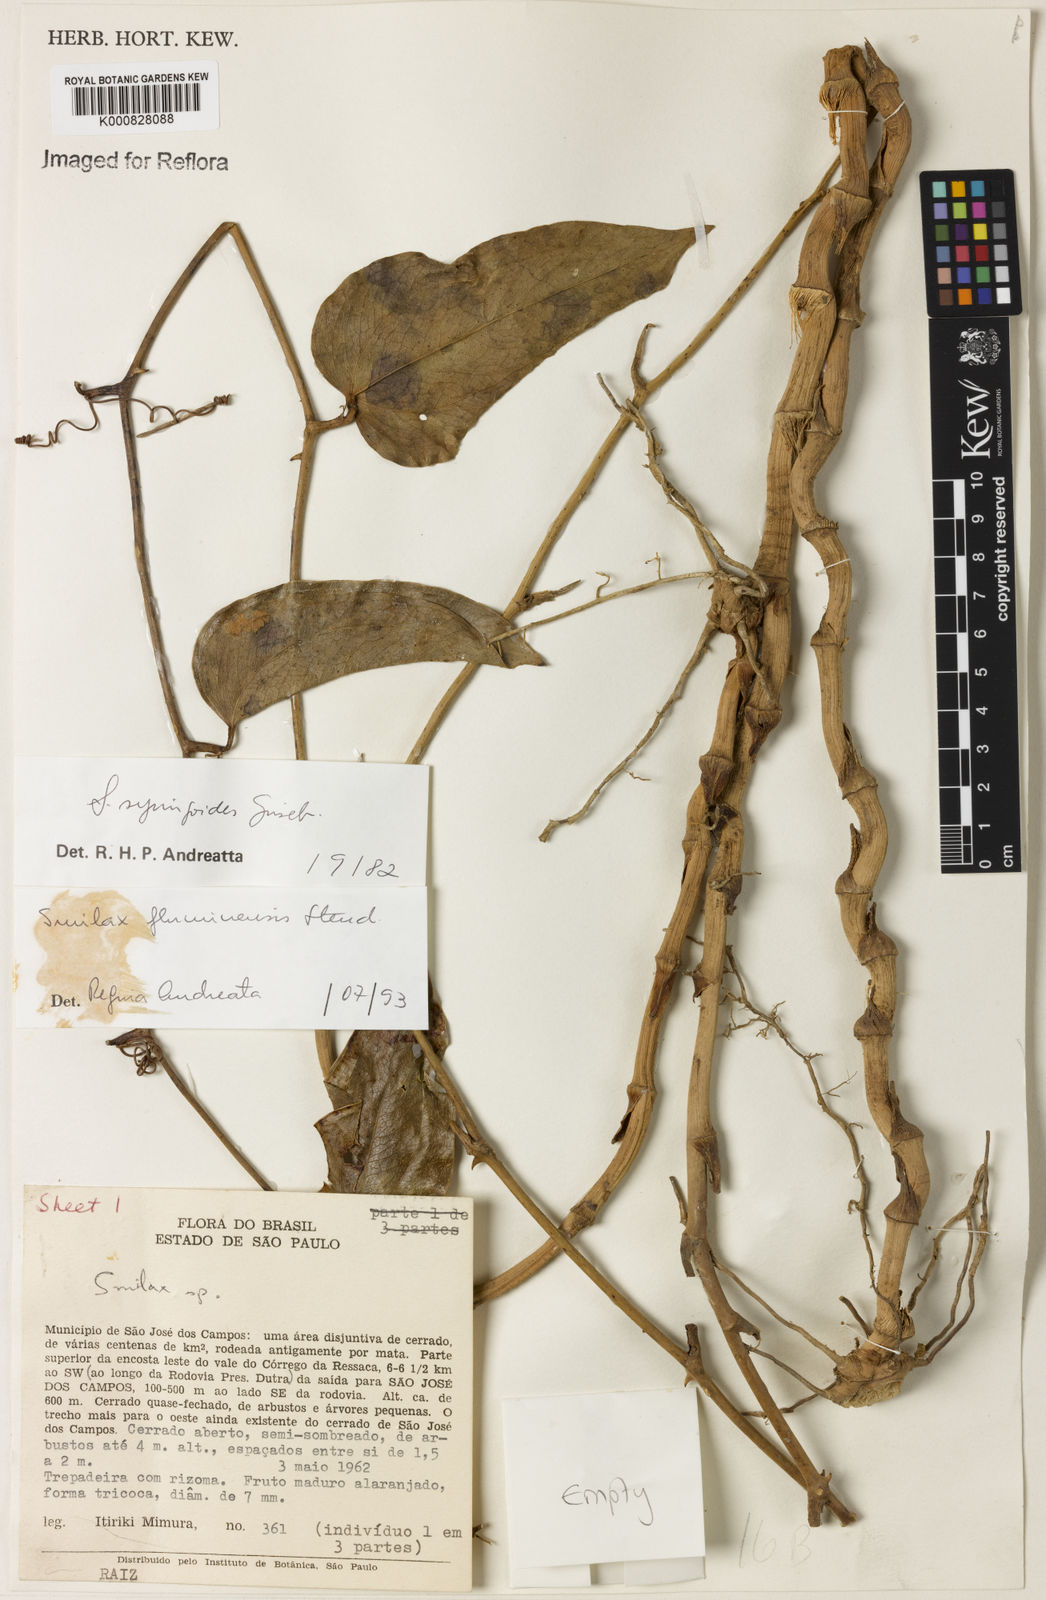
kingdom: Plantae
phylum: Tracheophyta
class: Liliopsida
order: Liliales
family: Smilacaceae
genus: Smilax
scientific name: Smilax fluminensis
